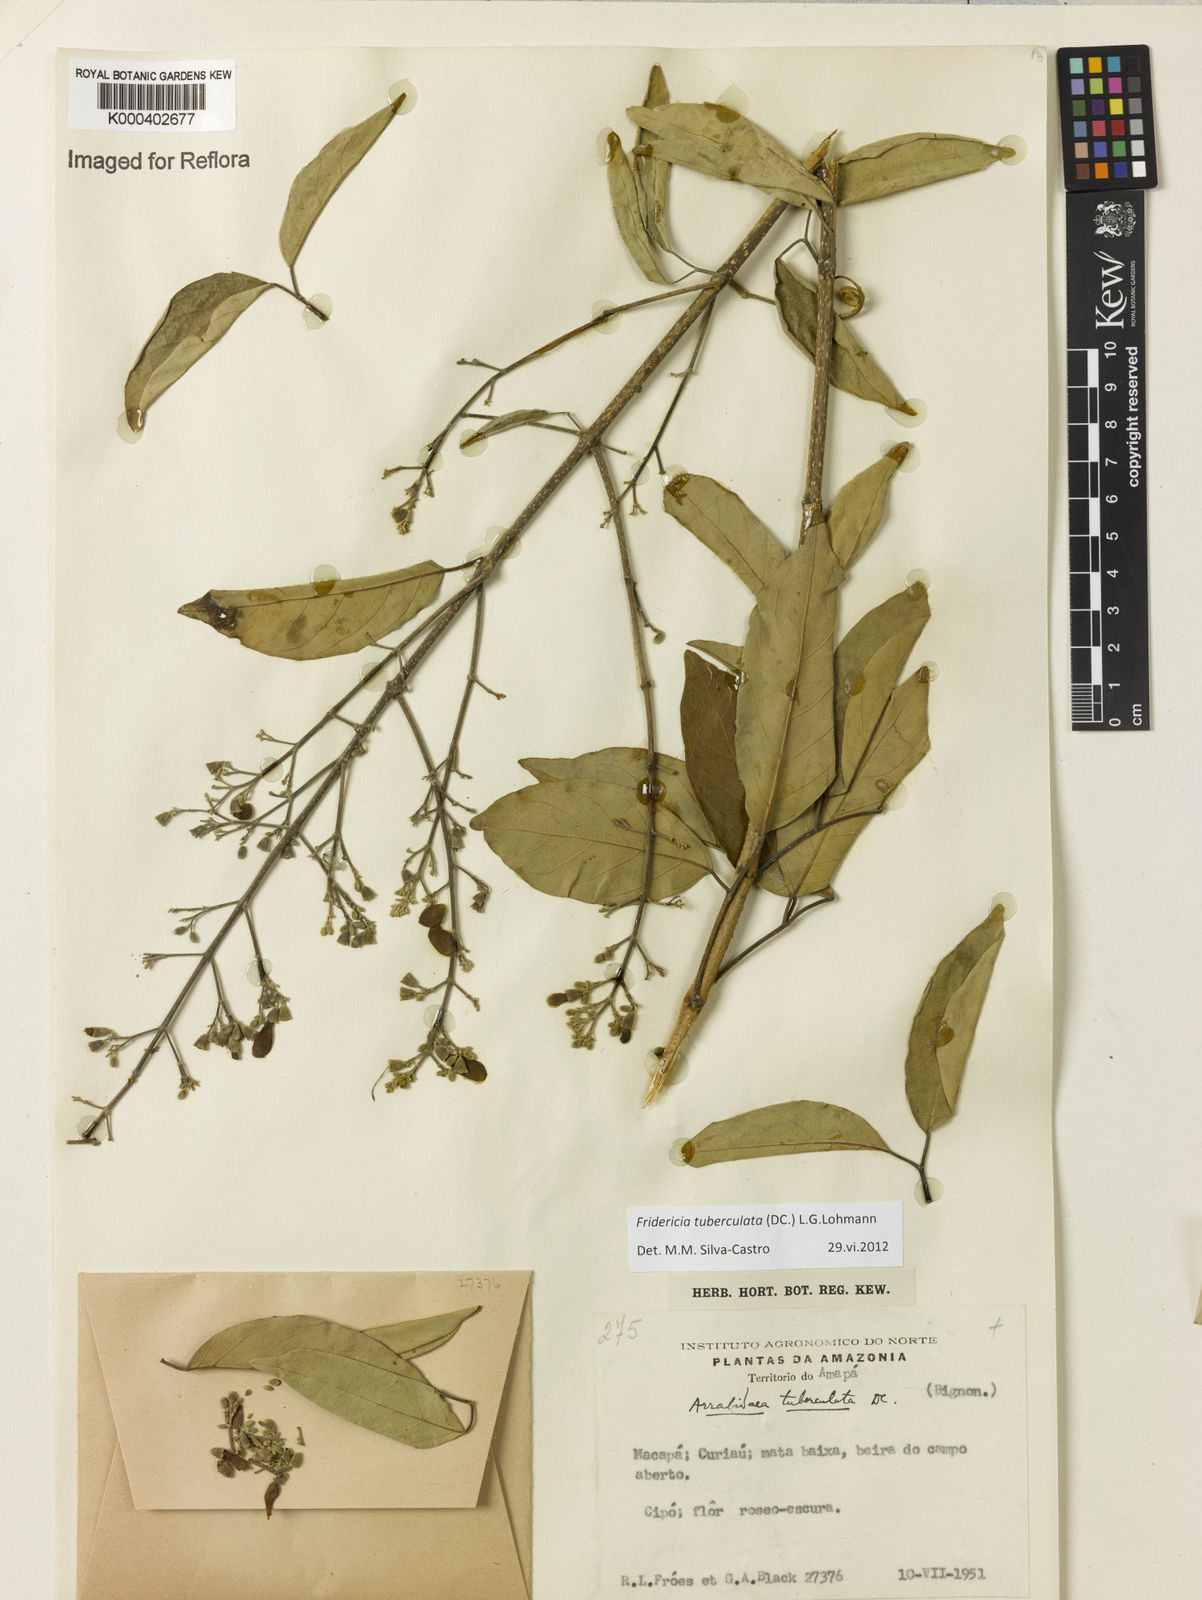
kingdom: Plantae
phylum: Tracheophyta
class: Magnoliopsida
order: Lamiales
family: Bignoniaceae
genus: Fridericia
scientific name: Fridericia tuberculata
